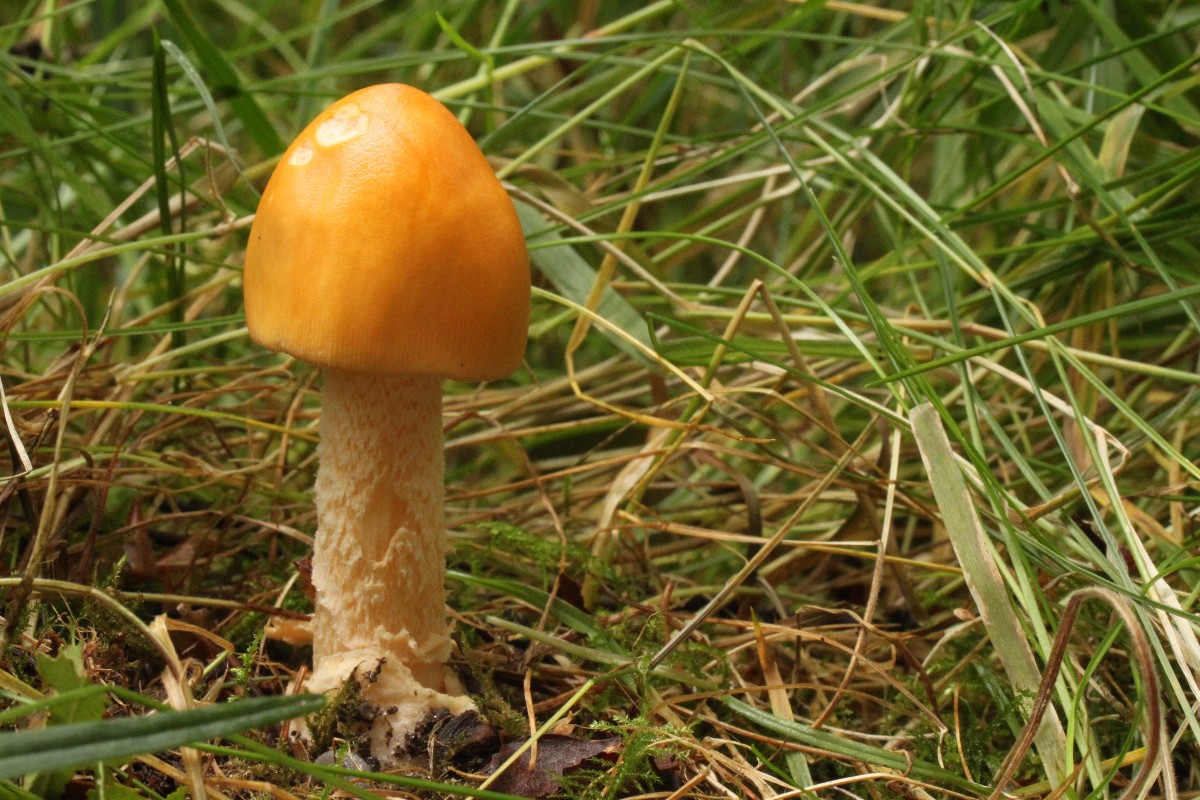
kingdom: Fungi
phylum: Basidiomycota
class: Agaricomycetes
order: Agaricales
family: Amanitaceae
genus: Amanita
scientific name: Amanita crocea
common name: gylden kam-fluesvamp
